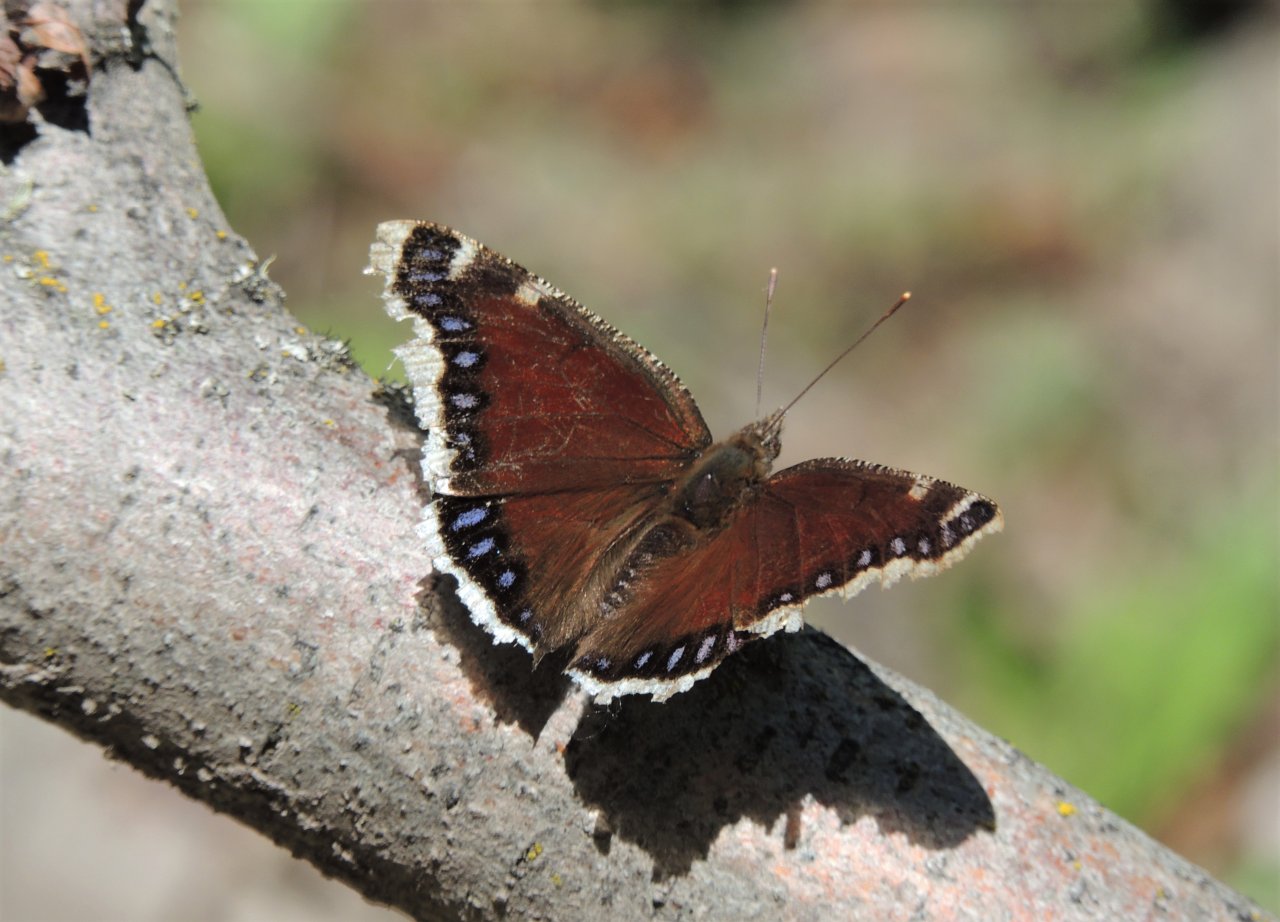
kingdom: Animalia
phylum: Arthropoda
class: Insecta
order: Lepidoptera
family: Nymphalidae
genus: Nymphalis
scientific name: Nymphalis antiopa
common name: Mourning Cloak
